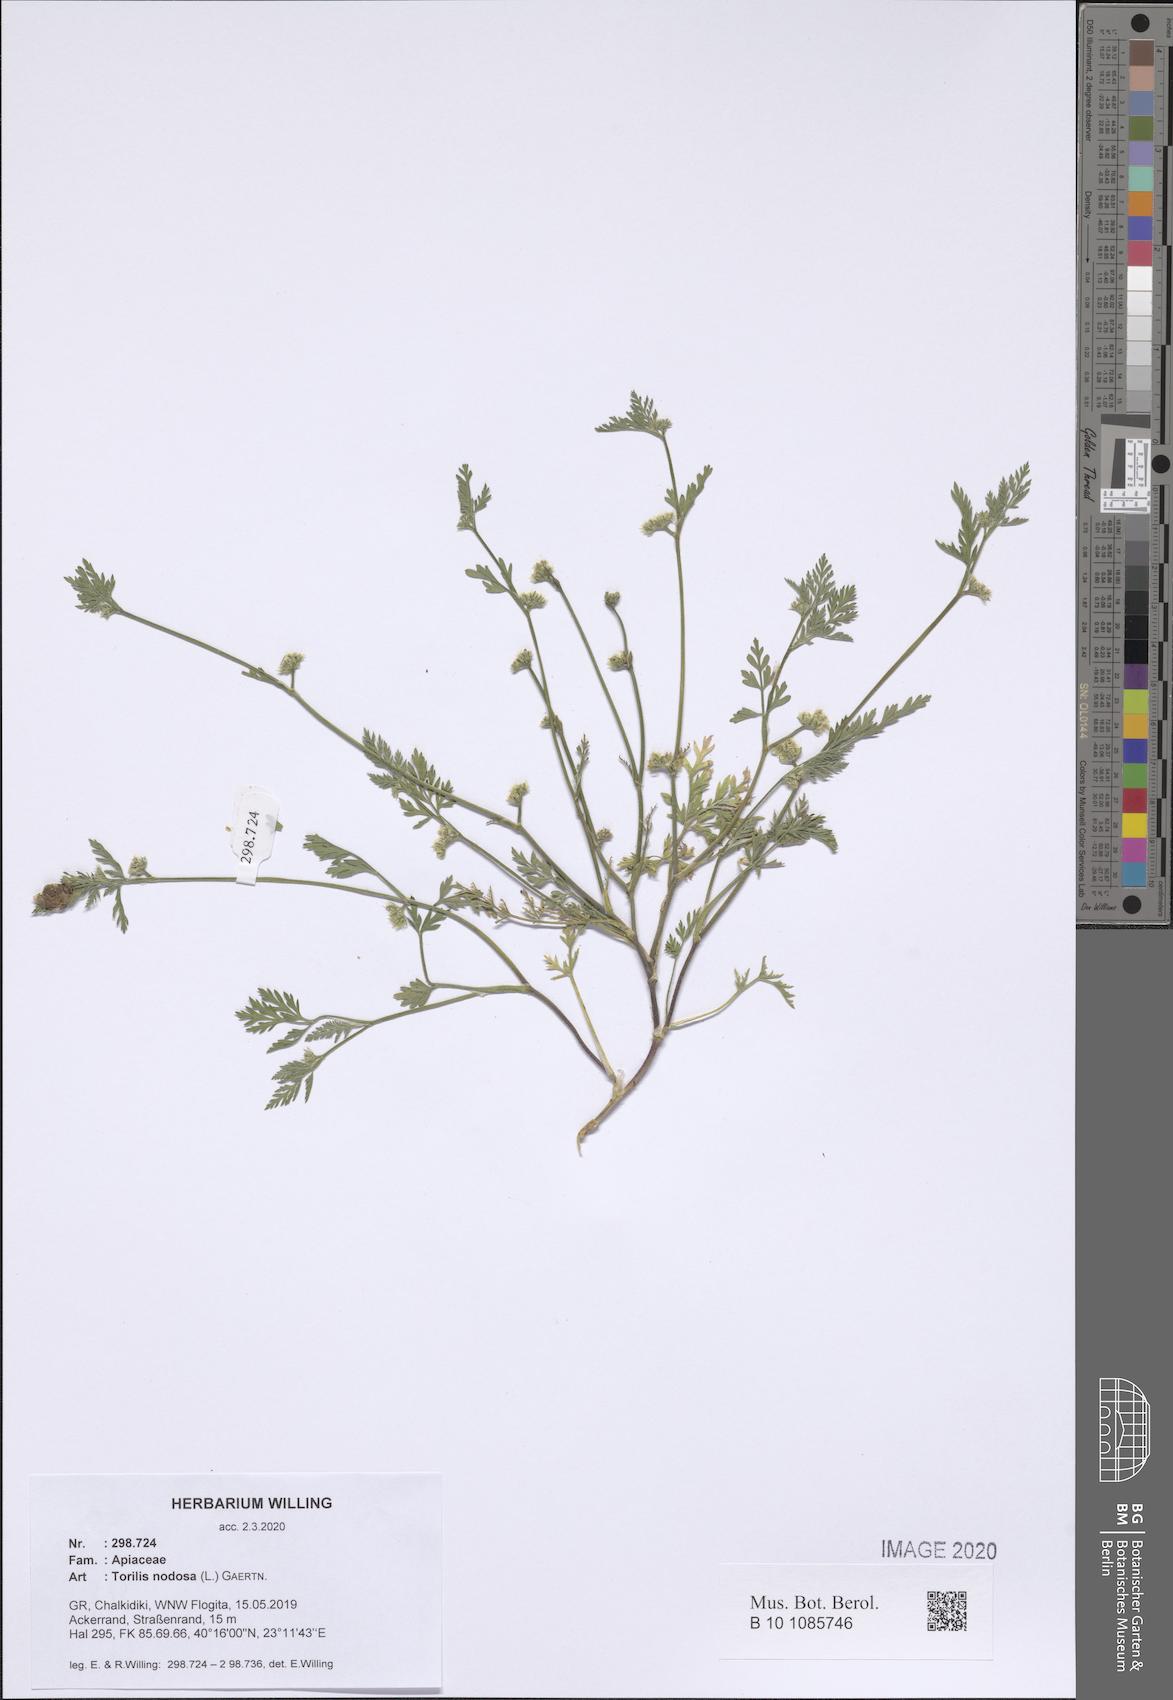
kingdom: Plantae
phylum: Tracheophyta
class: Magnoliopsida
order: Apiales
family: Apiaceae
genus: Torilis
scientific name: Torilis nodosa
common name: Knotted hedge-parsley
